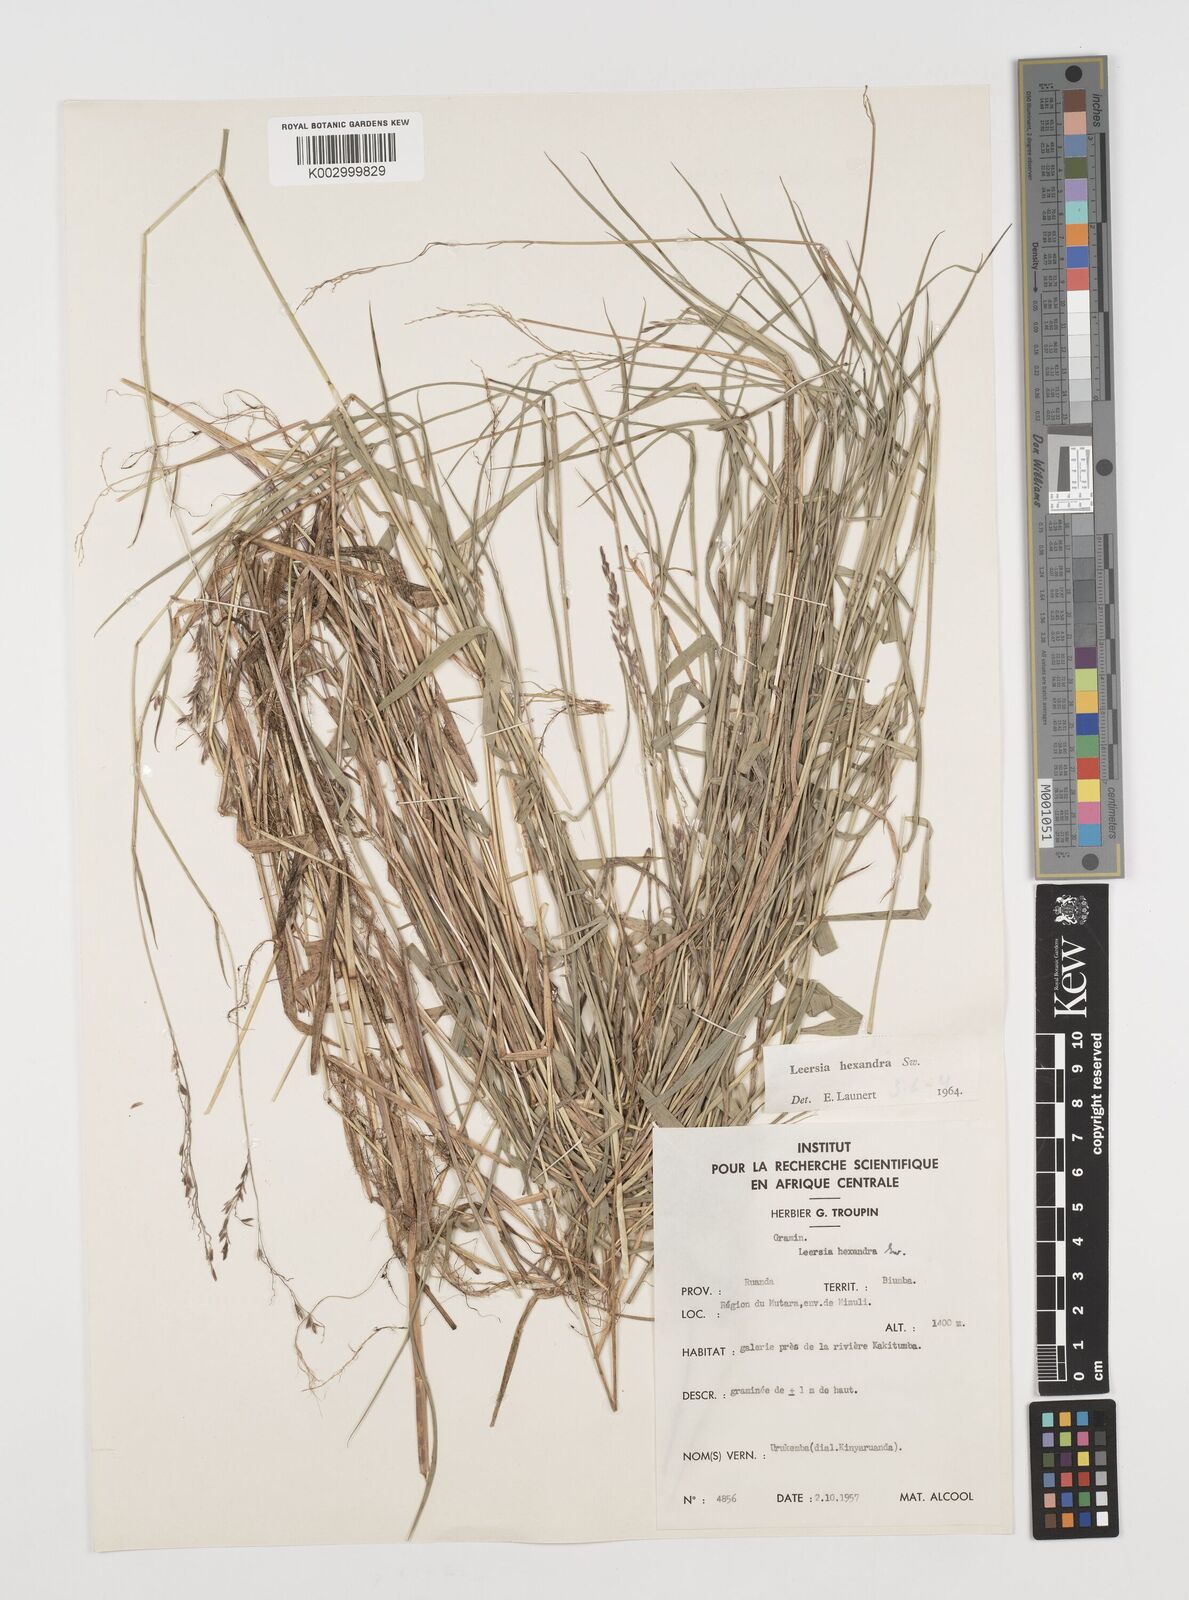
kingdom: Plantae
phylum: Tracheophyta
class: Liliopsida
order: Poales
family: Poaceae
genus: Leersia
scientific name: Leersia hexandra
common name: Southern cut grass
